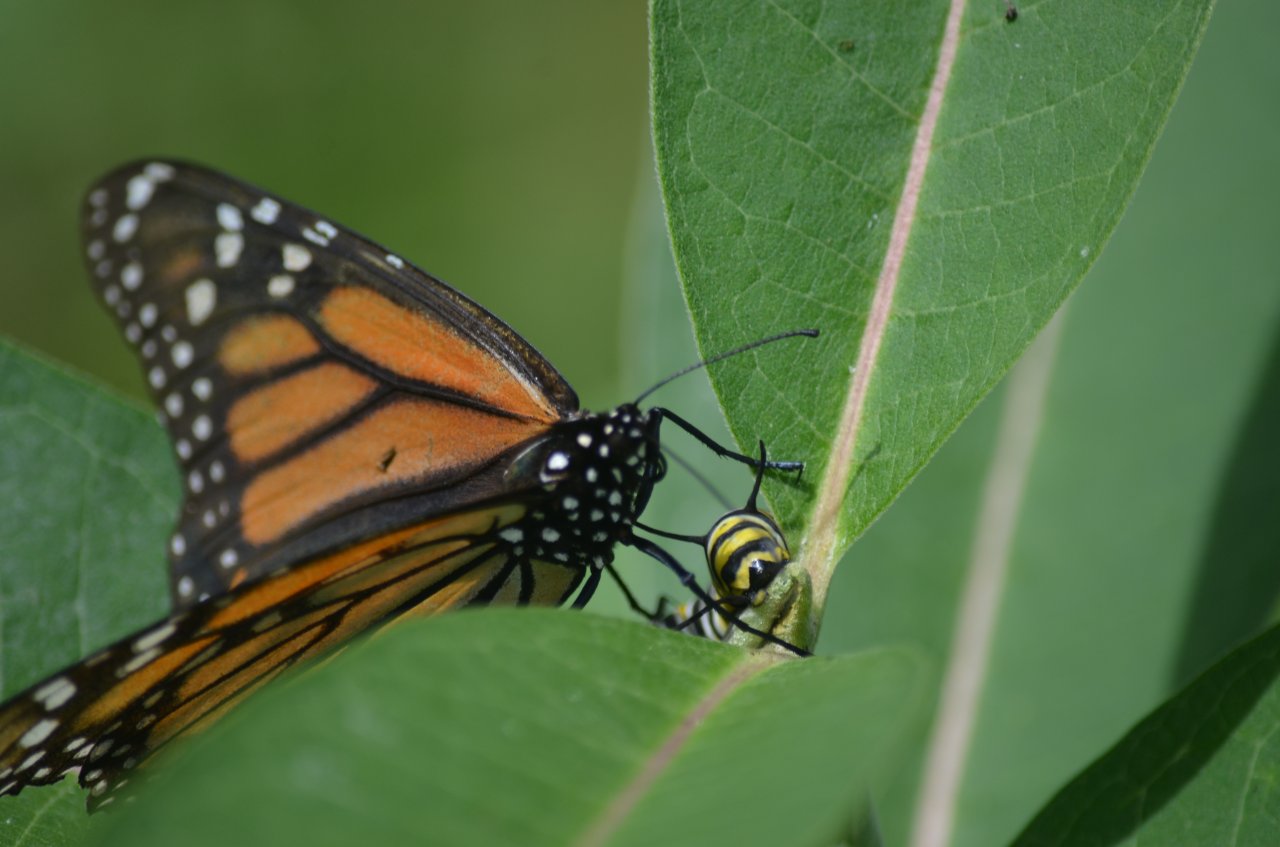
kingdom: Animalia
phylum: Arthropoda
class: Insecta
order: Lepidoptera
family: Nymphalidae
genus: Danaus
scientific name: Danaus plexippus
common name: Monarch
